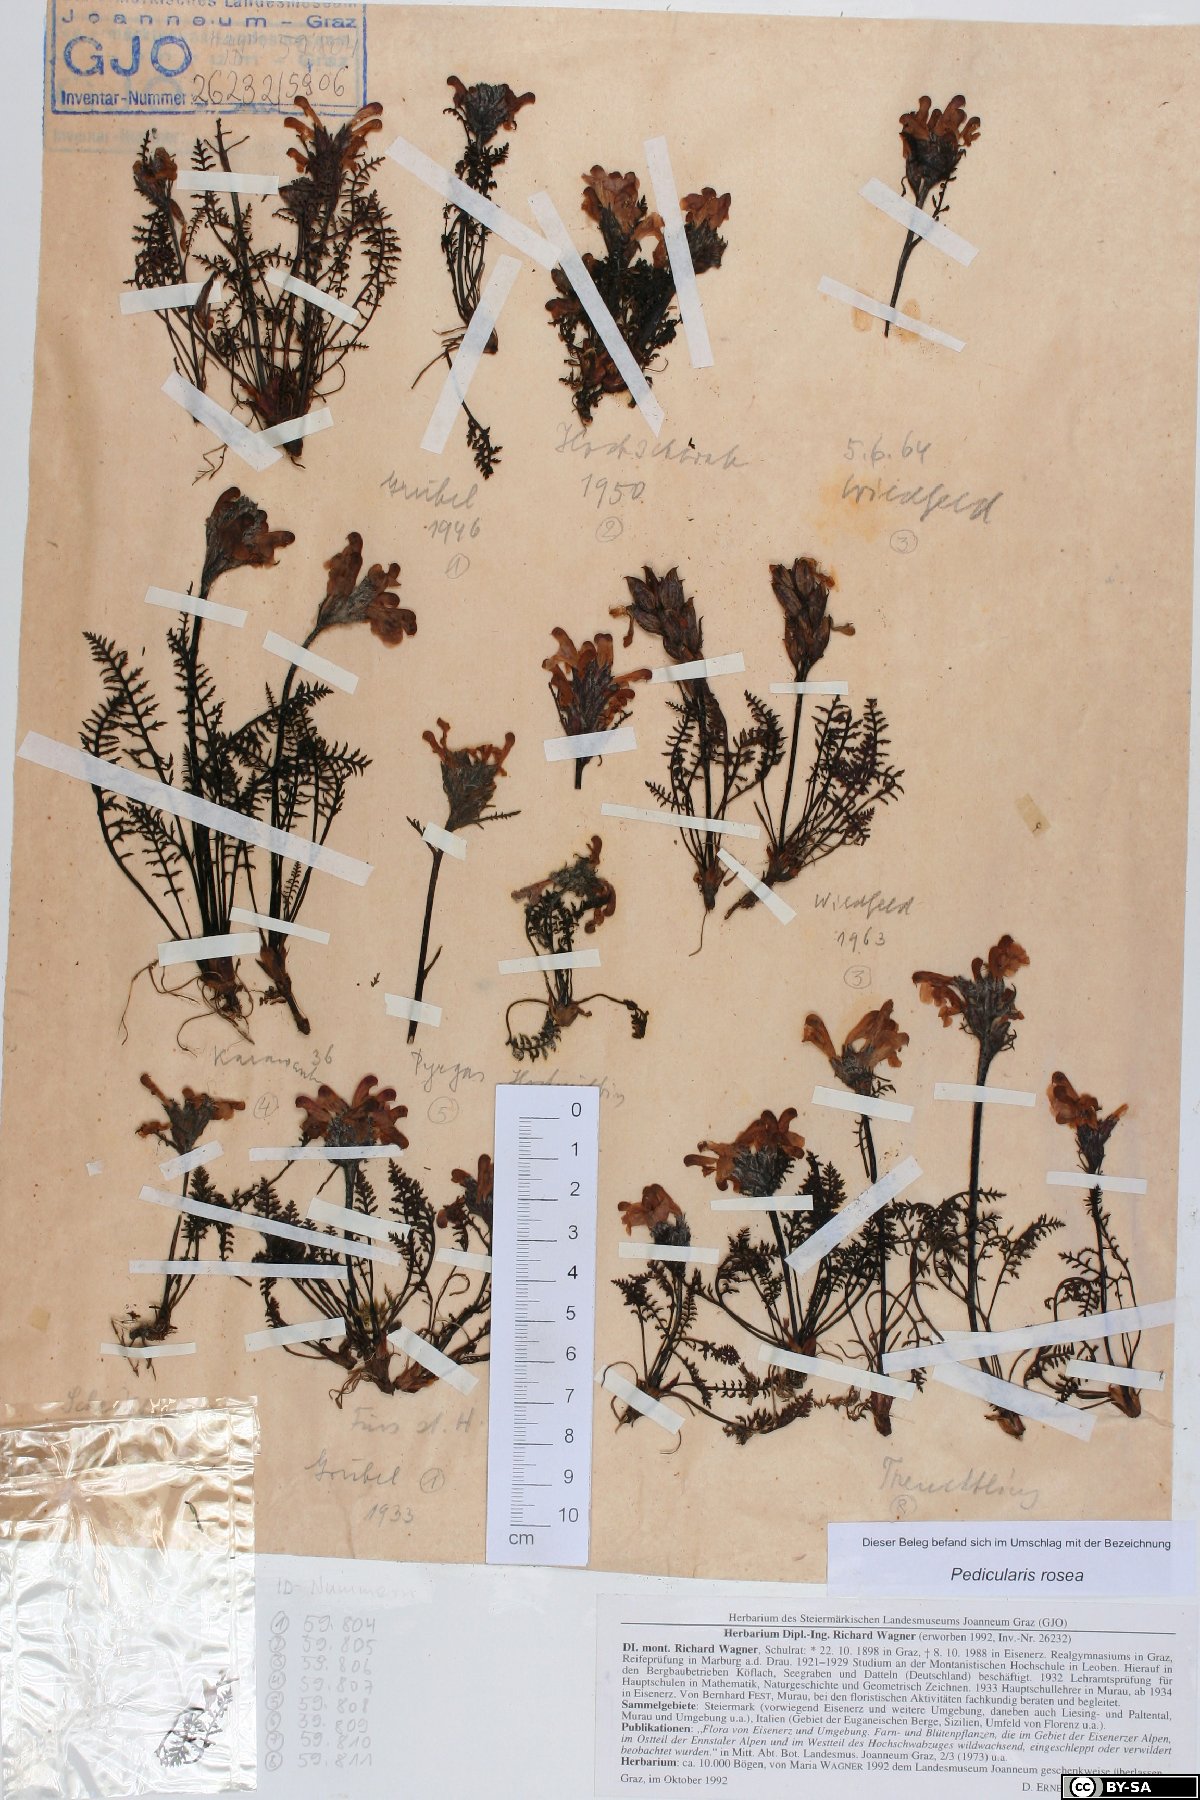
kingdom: Plantae
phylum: Tracheophyta
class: Magnoliopsida
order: Lamiales
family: Orobanchaceae
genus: Pedicularis
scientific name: Pedicularis rosea
